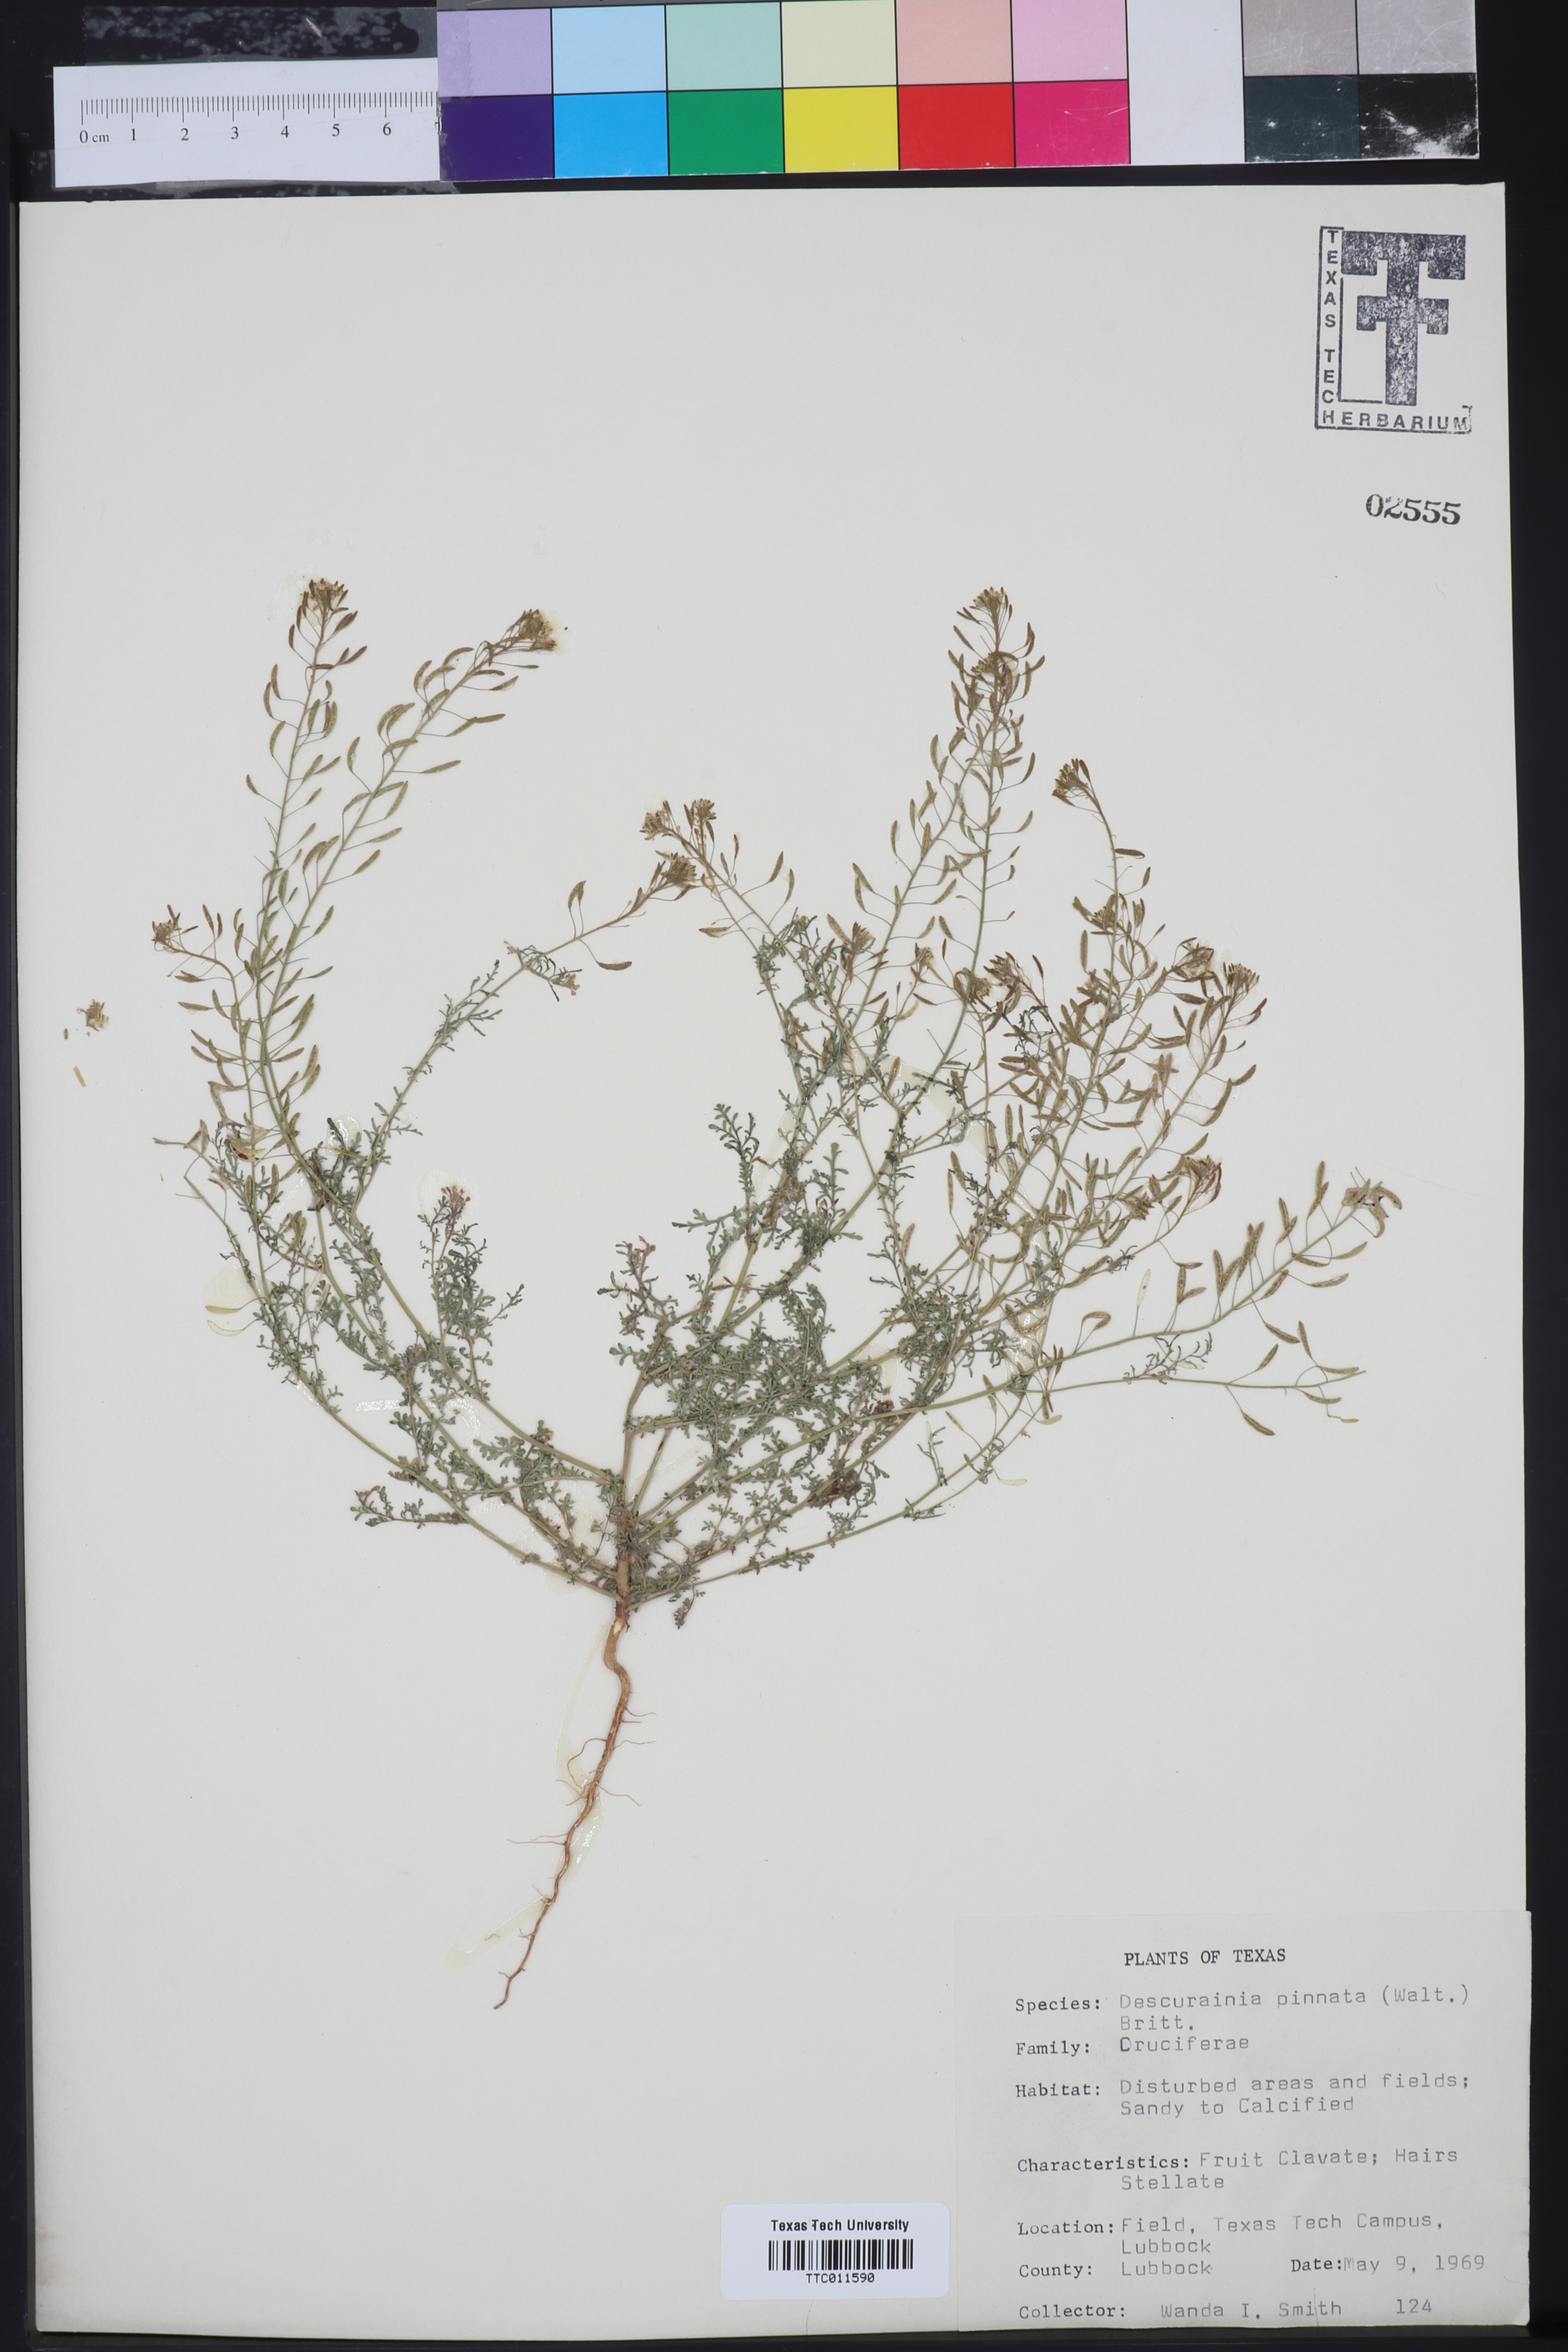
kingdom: Plantae
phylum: Tracheophyta
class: Magnoliopsida
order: Brassicales
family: Brassicaceae
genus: Descurainia
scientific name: Descurainia pinnata
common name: Western tansy mustard
